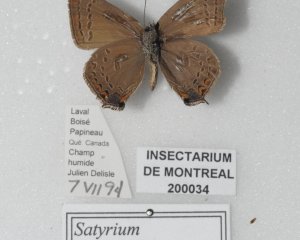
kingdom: Animalia
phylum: Arthropoda
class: Insecta
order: Lepidoptera
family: Lycaenidae
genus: Satyrium
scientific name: Satyrium calanus
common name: Banded Hairstreak
